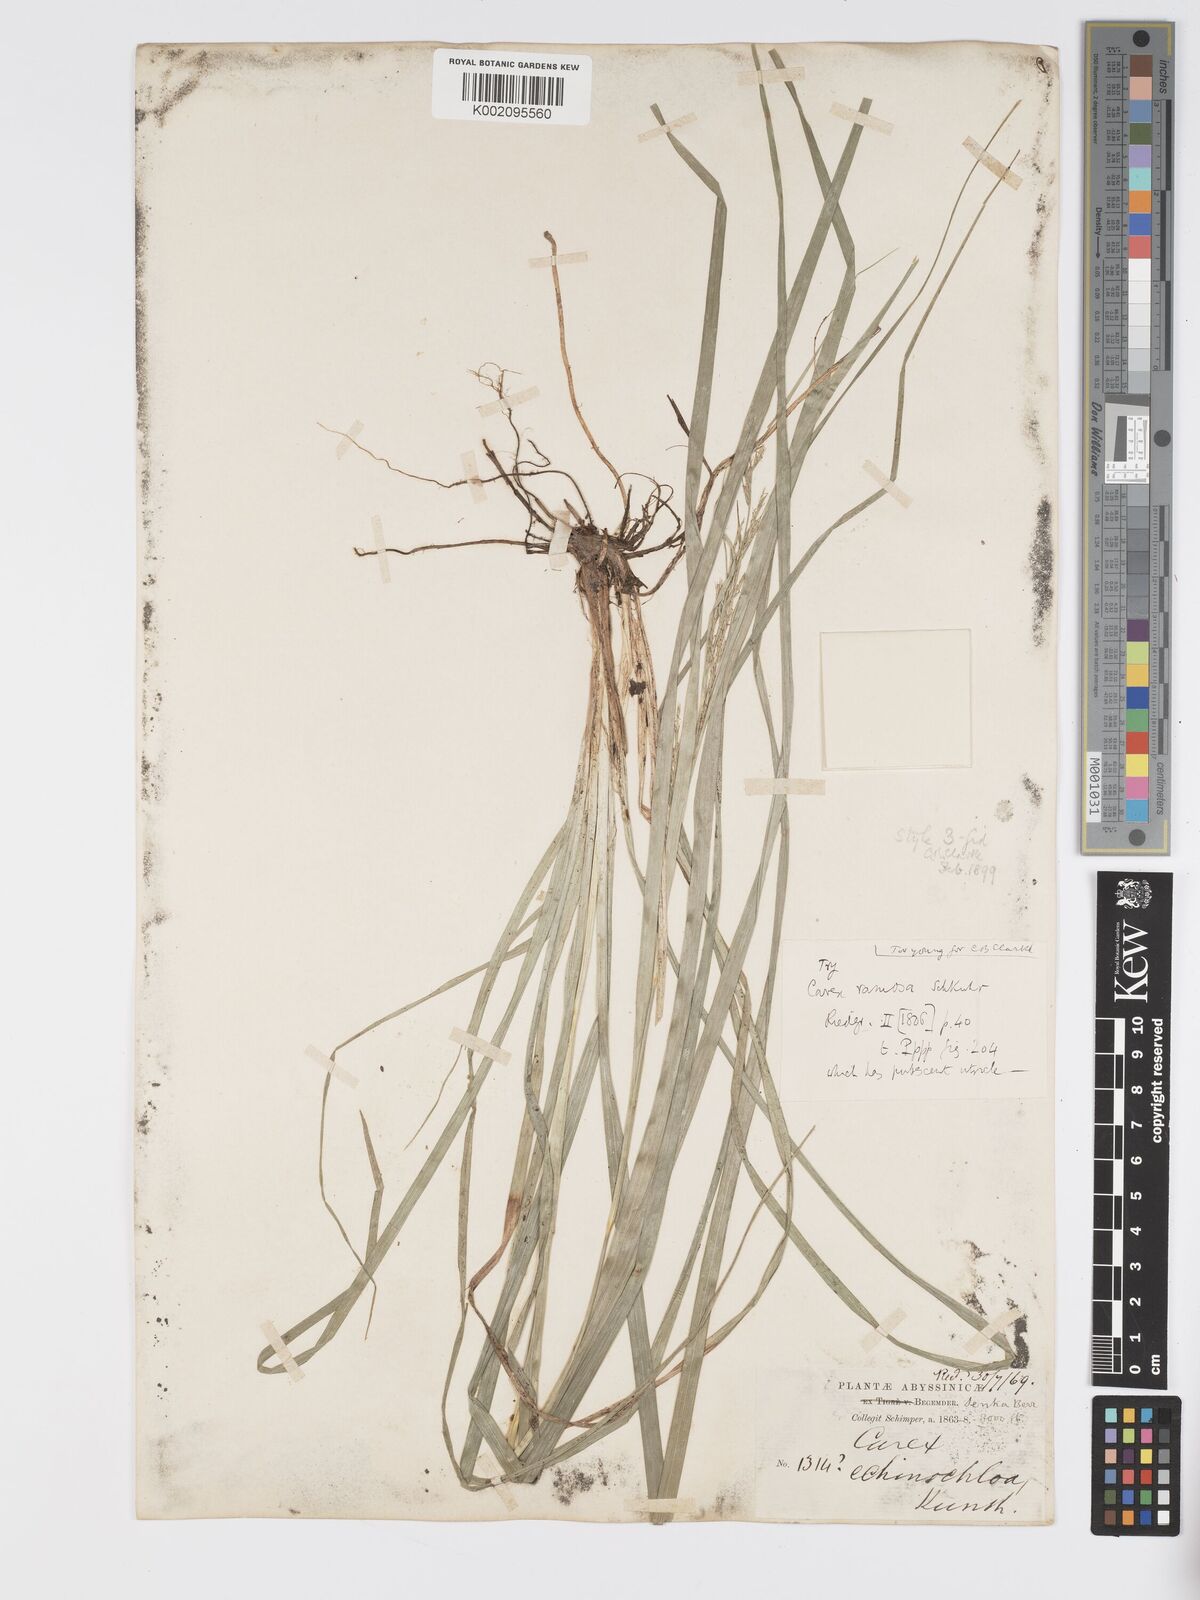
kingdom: Plantae
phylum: Tracheophyta
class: Liliopsida
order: Poales
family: Cyperaceae
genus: Carex
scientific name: Carex echinochloe
